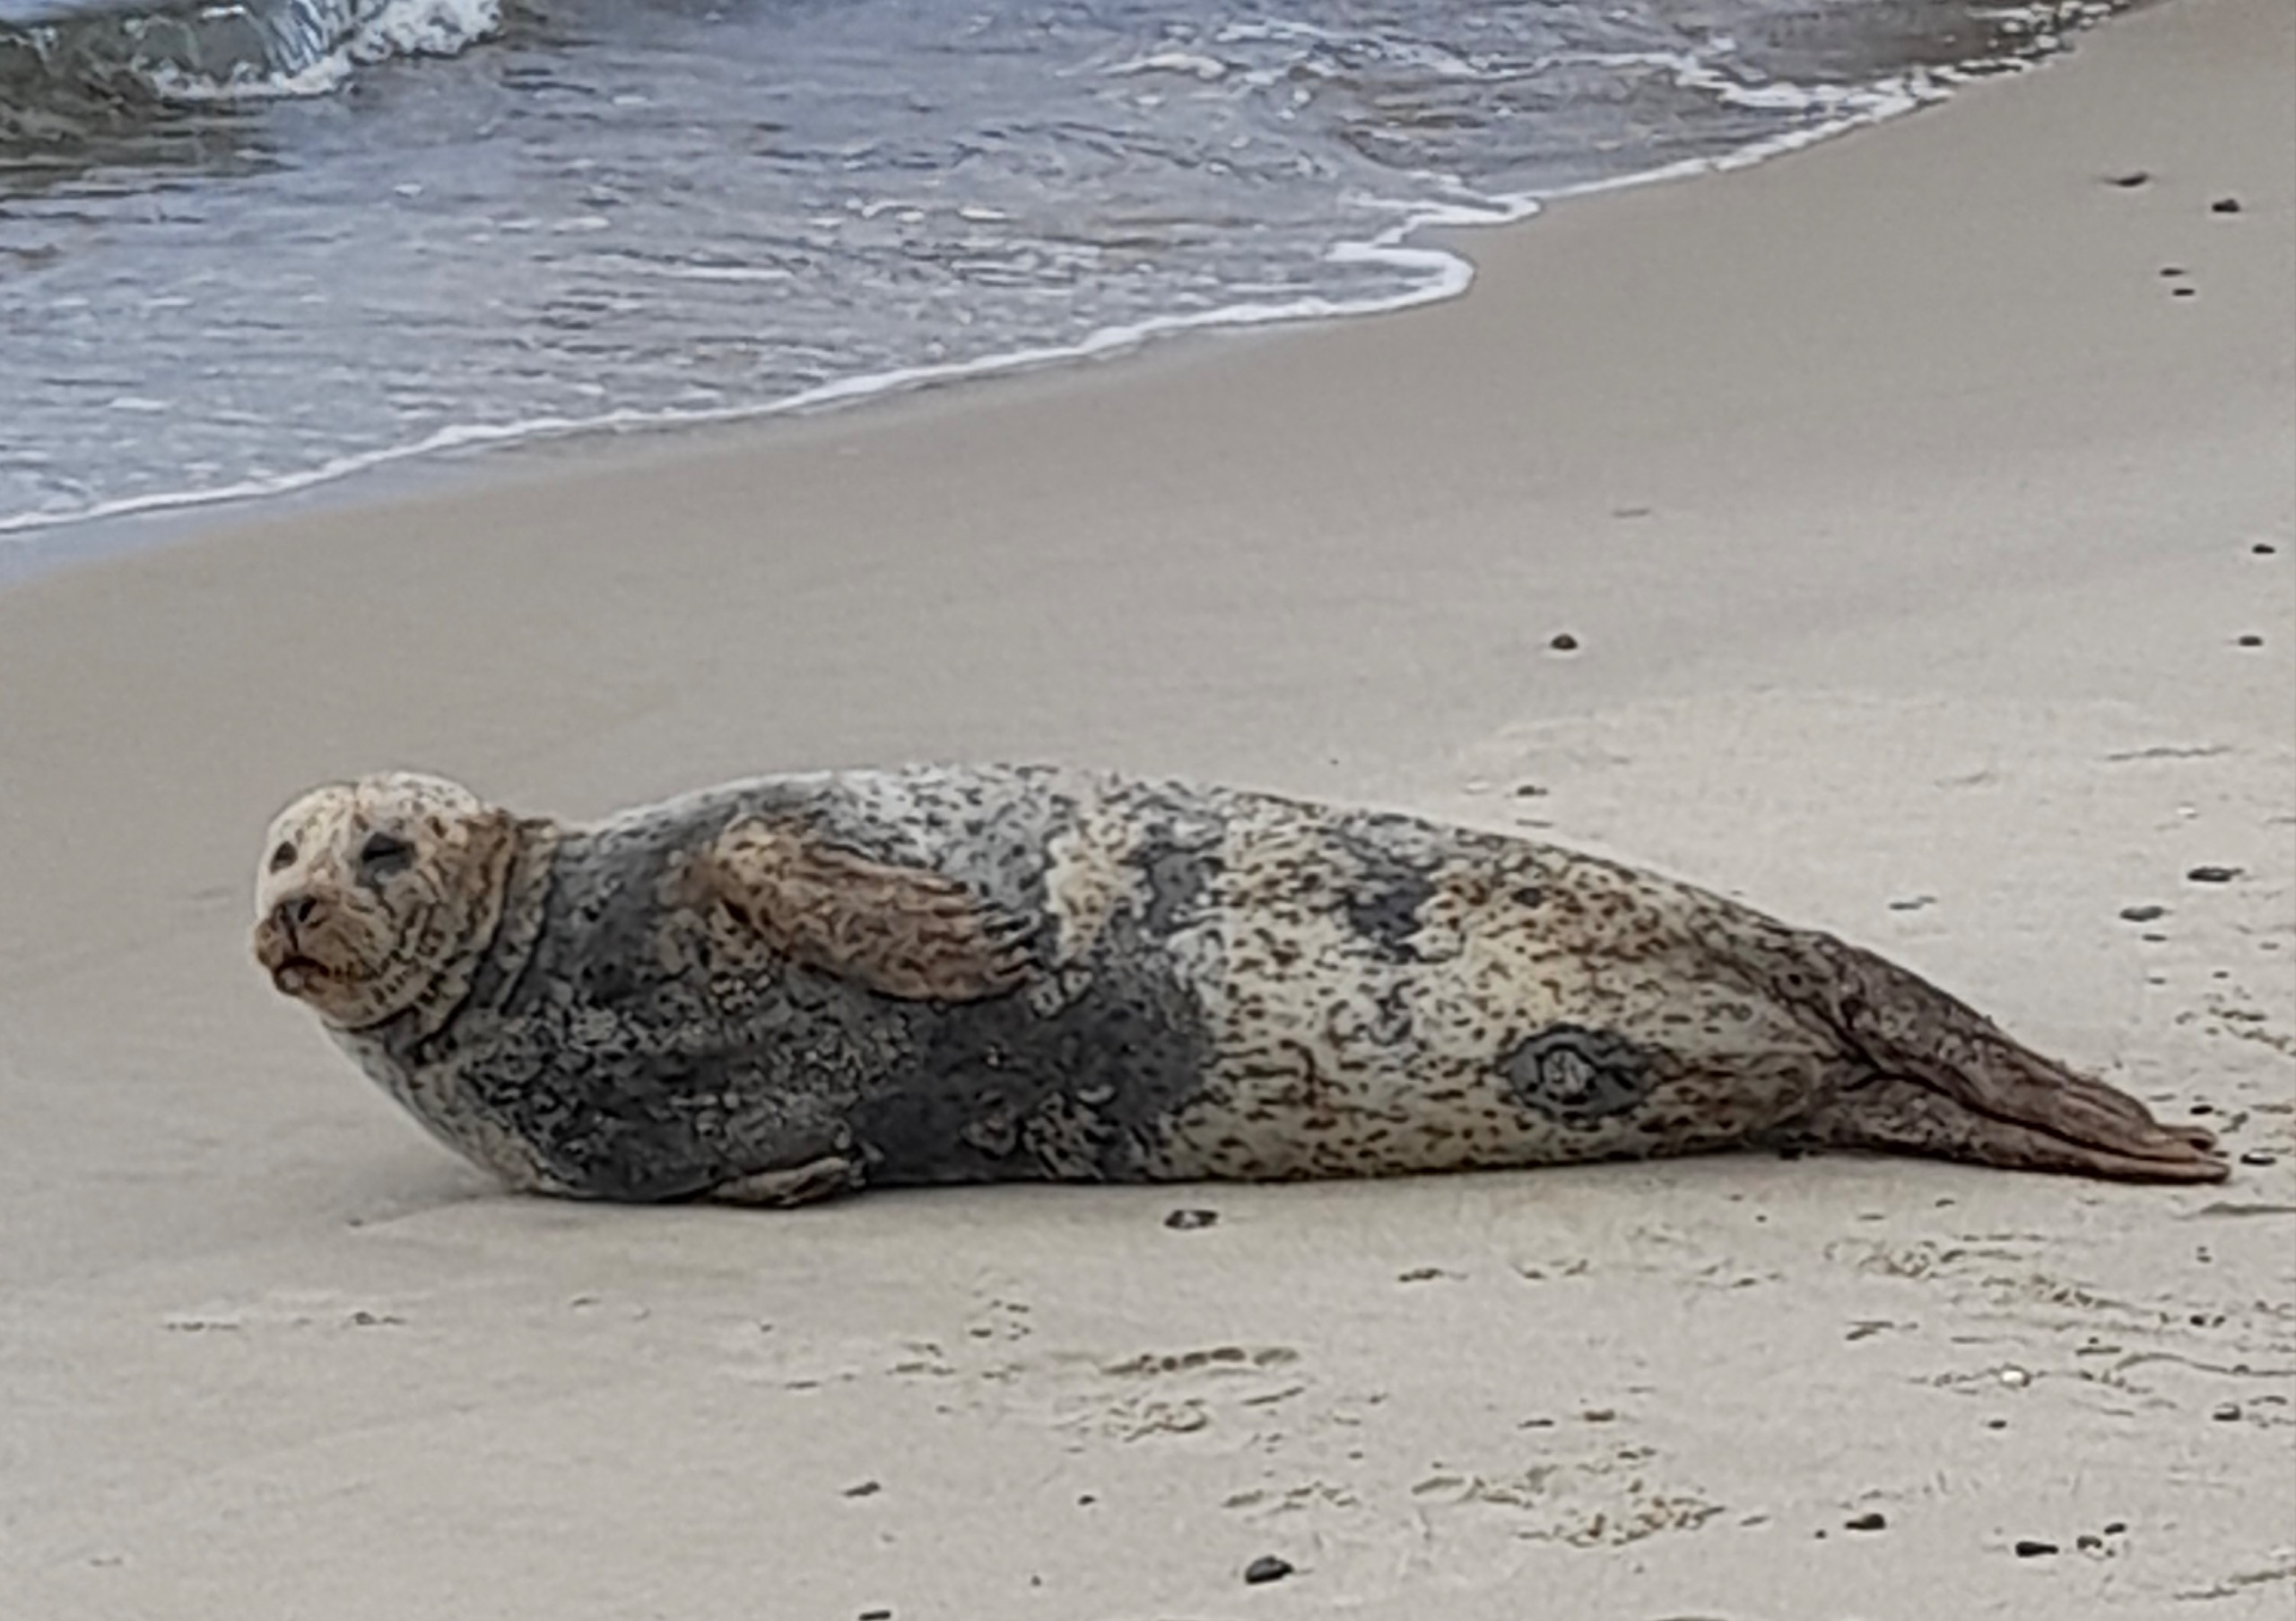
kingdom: Animalia
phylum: Chordata
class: Mammalia
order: Carnivora
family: Phocidae
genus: Phoca
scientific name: Phoca vitulina
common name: Spættet sæl
